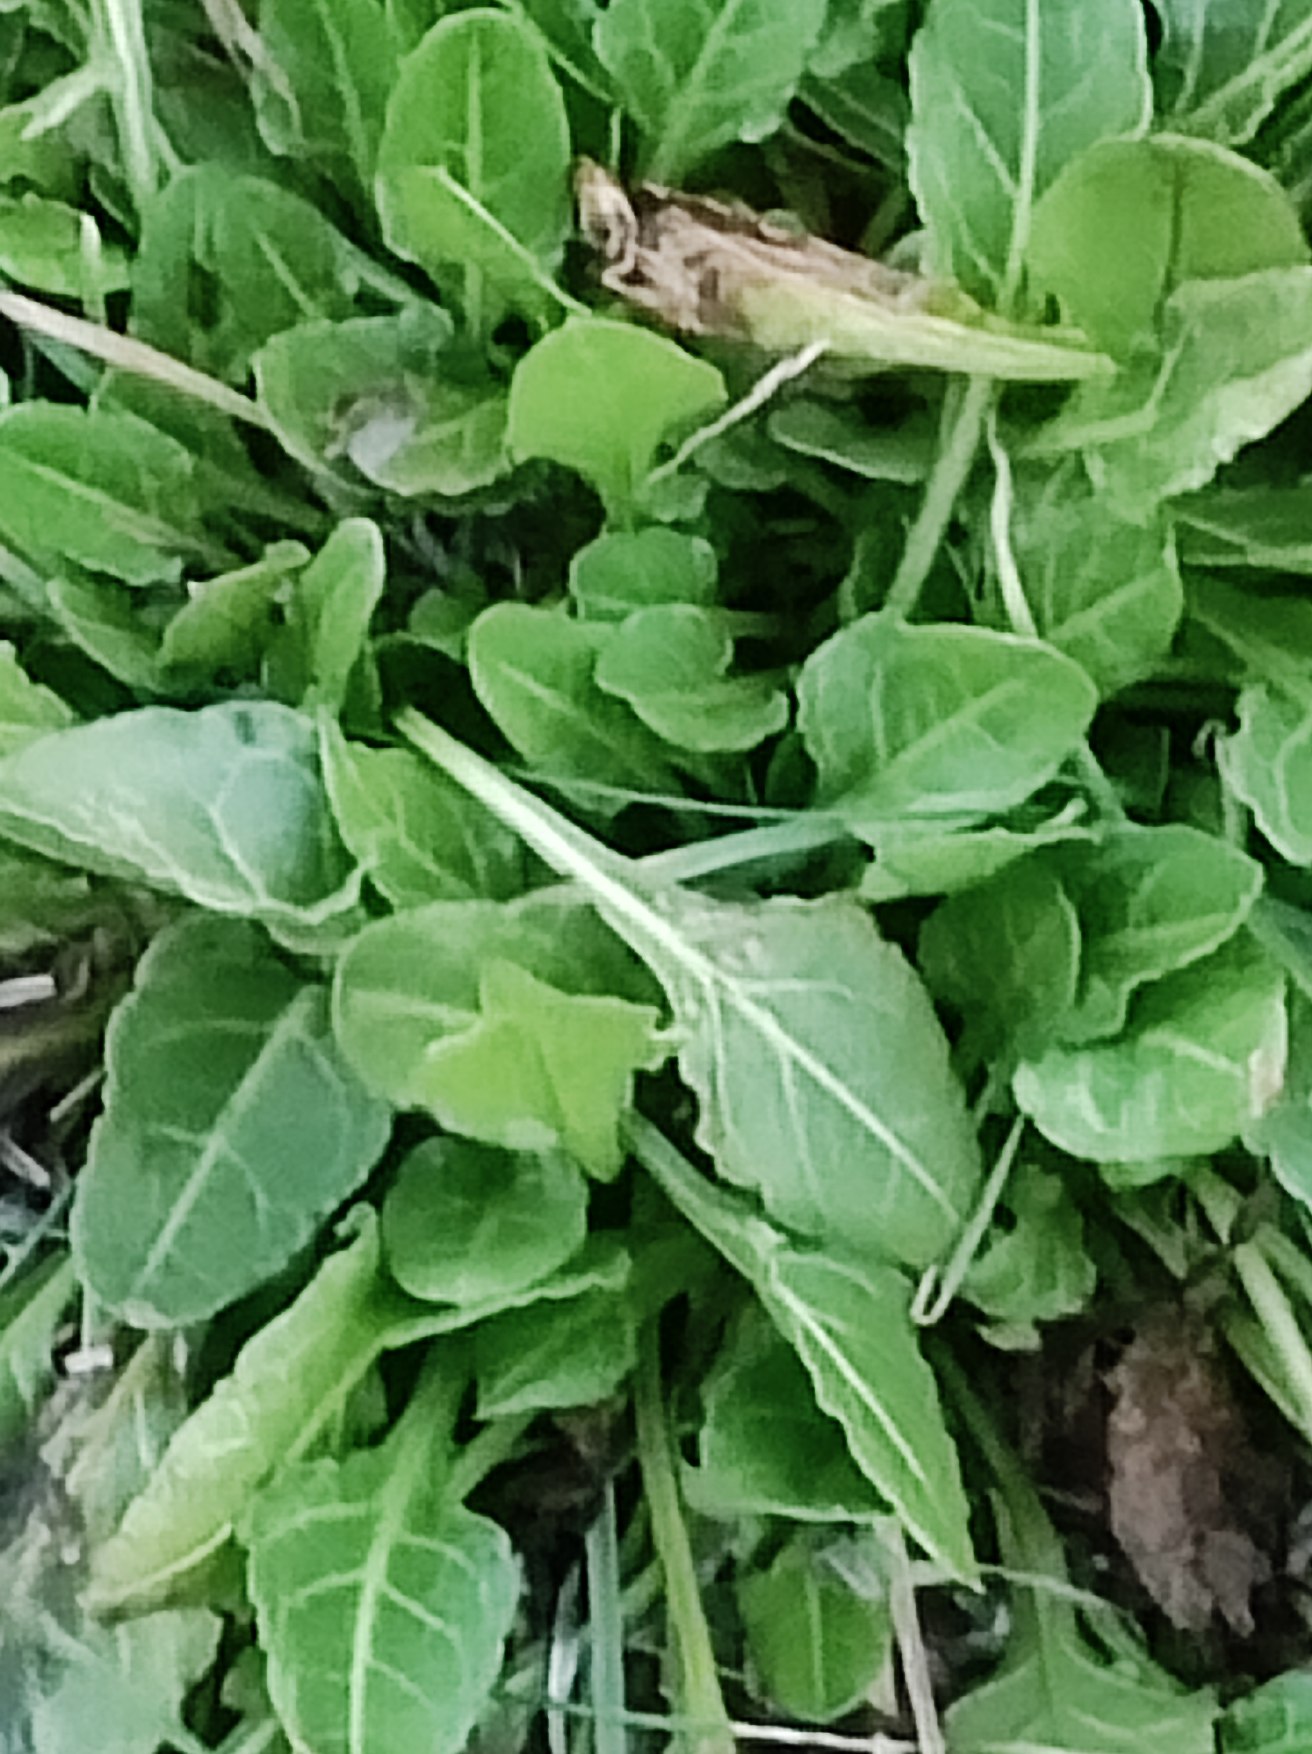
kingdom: Plantae
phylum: Tracheophyta
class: Magnoliopsida
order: Caryophyllales
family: Amaranthaceae
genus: Beta
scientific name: Beta vulgaris
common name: Bede
